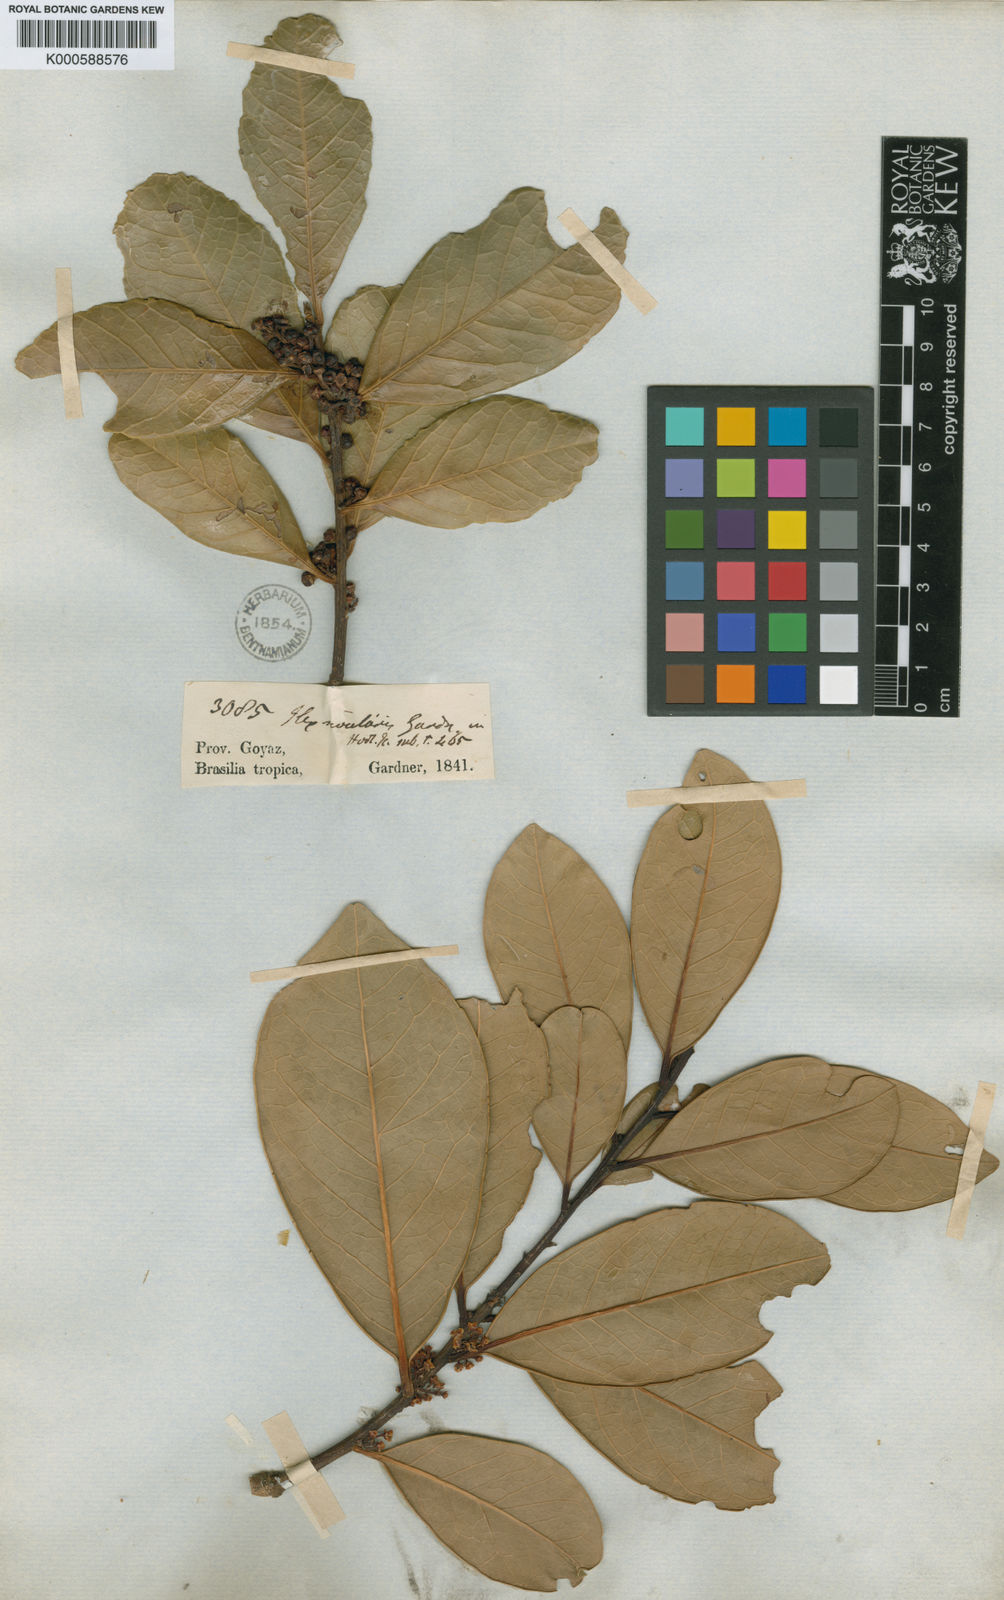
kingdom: Plantae
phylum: Tracheophyta
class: Magnoliopsida
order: Aquifoliales
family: Aquifoliaceae
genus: Ilex
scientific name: Ilex affinis
